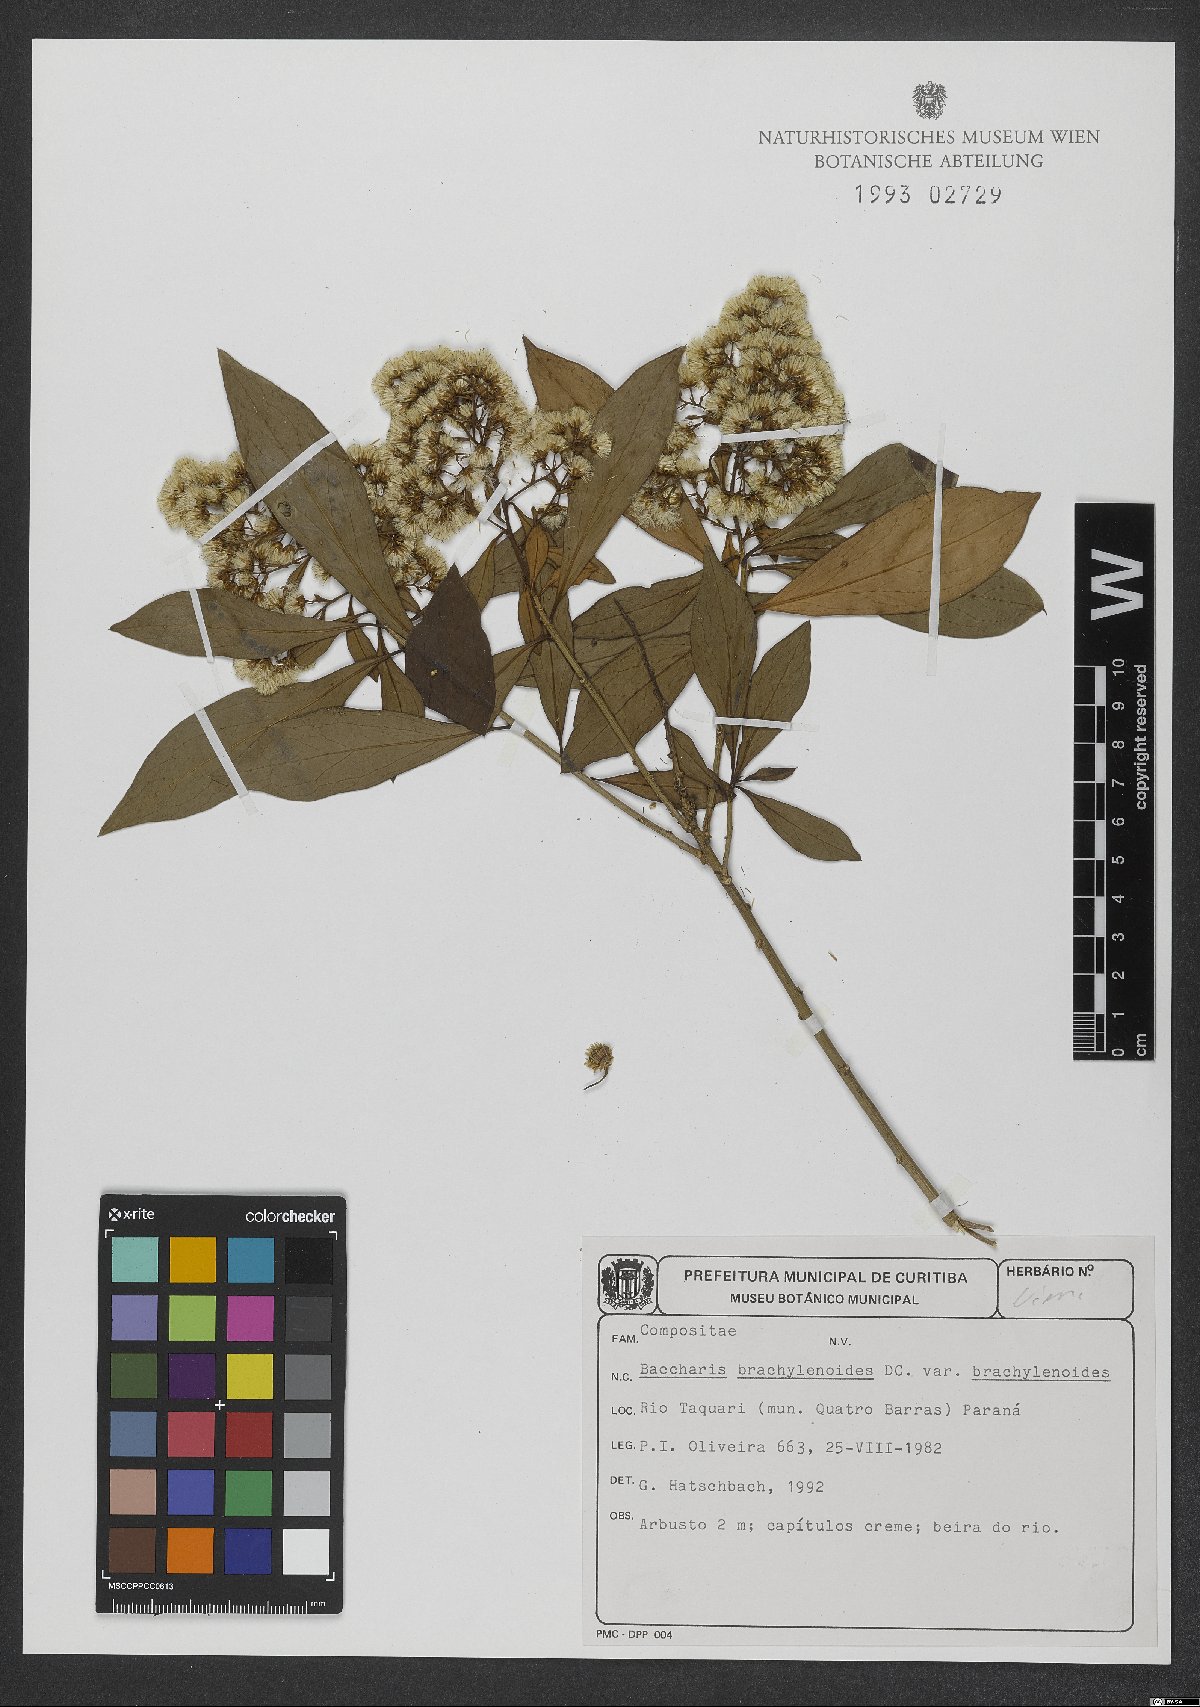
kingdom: Plantae
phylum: Tracheophyta
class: Magnoliopsida
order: Asterales
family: Asteraceae
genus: Baccharis
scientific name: Baccharis oblongifolia
